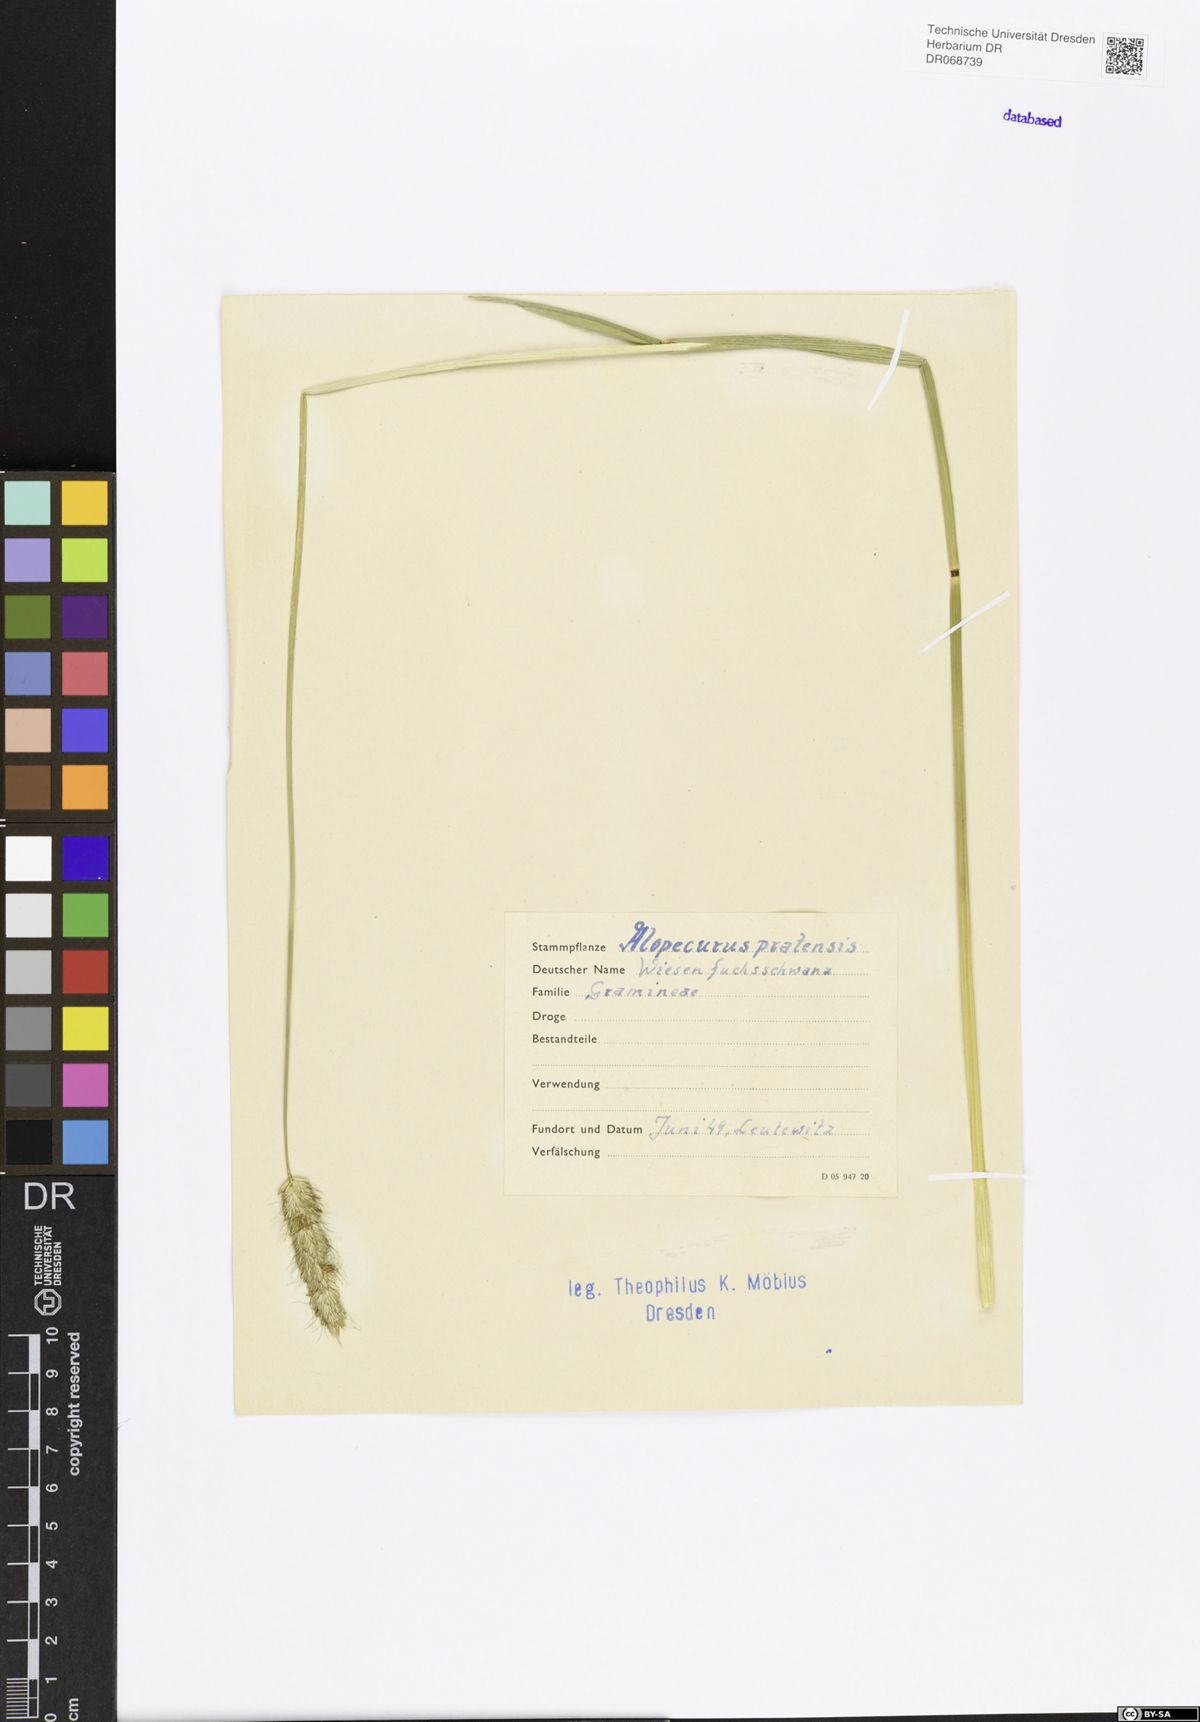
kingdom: Plantae
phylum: Tracheophyta
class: Liliopsida
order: Poales
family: Poaceae
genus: Alopecurus
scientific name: Alopecurus pratensis
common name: Meadow foxtail
